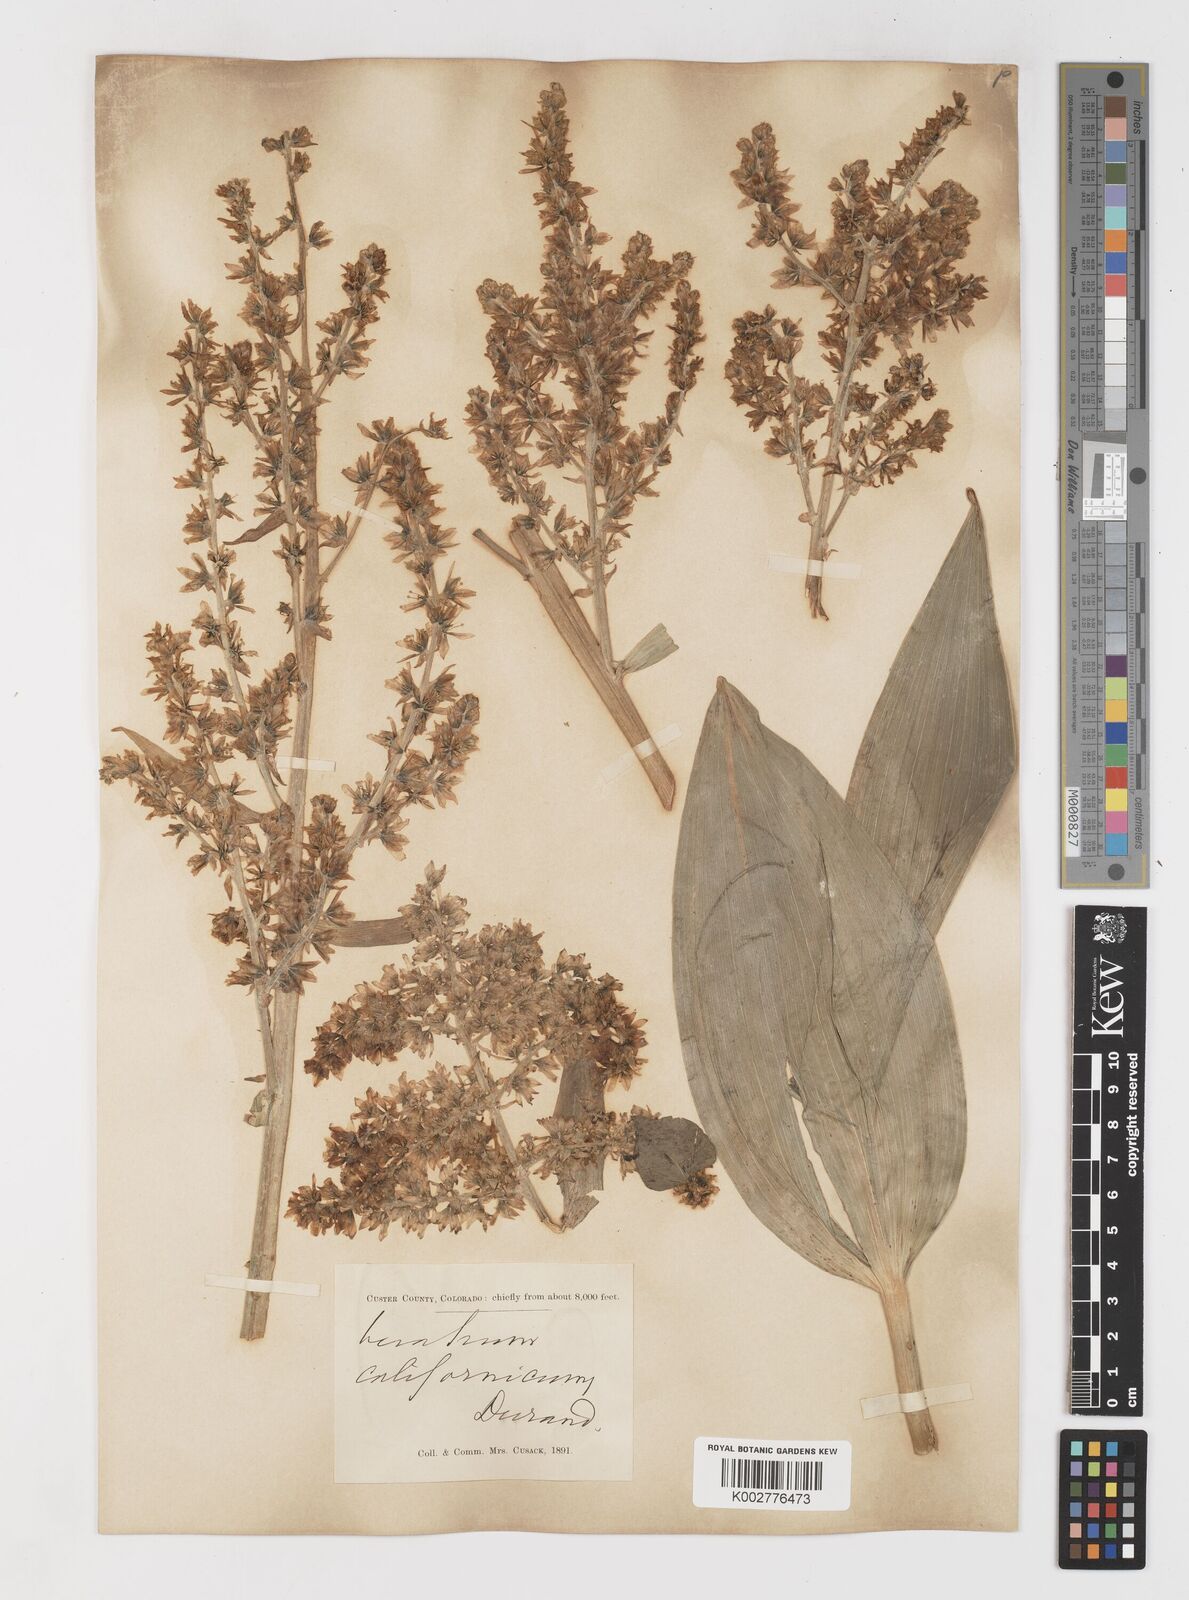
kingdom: Plantae
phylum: Tracheophyta
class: Liliopsida
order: Liliales
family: Melanthiaceae
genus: Veratrum
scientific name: Veratrum californicum
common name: California veratrum
